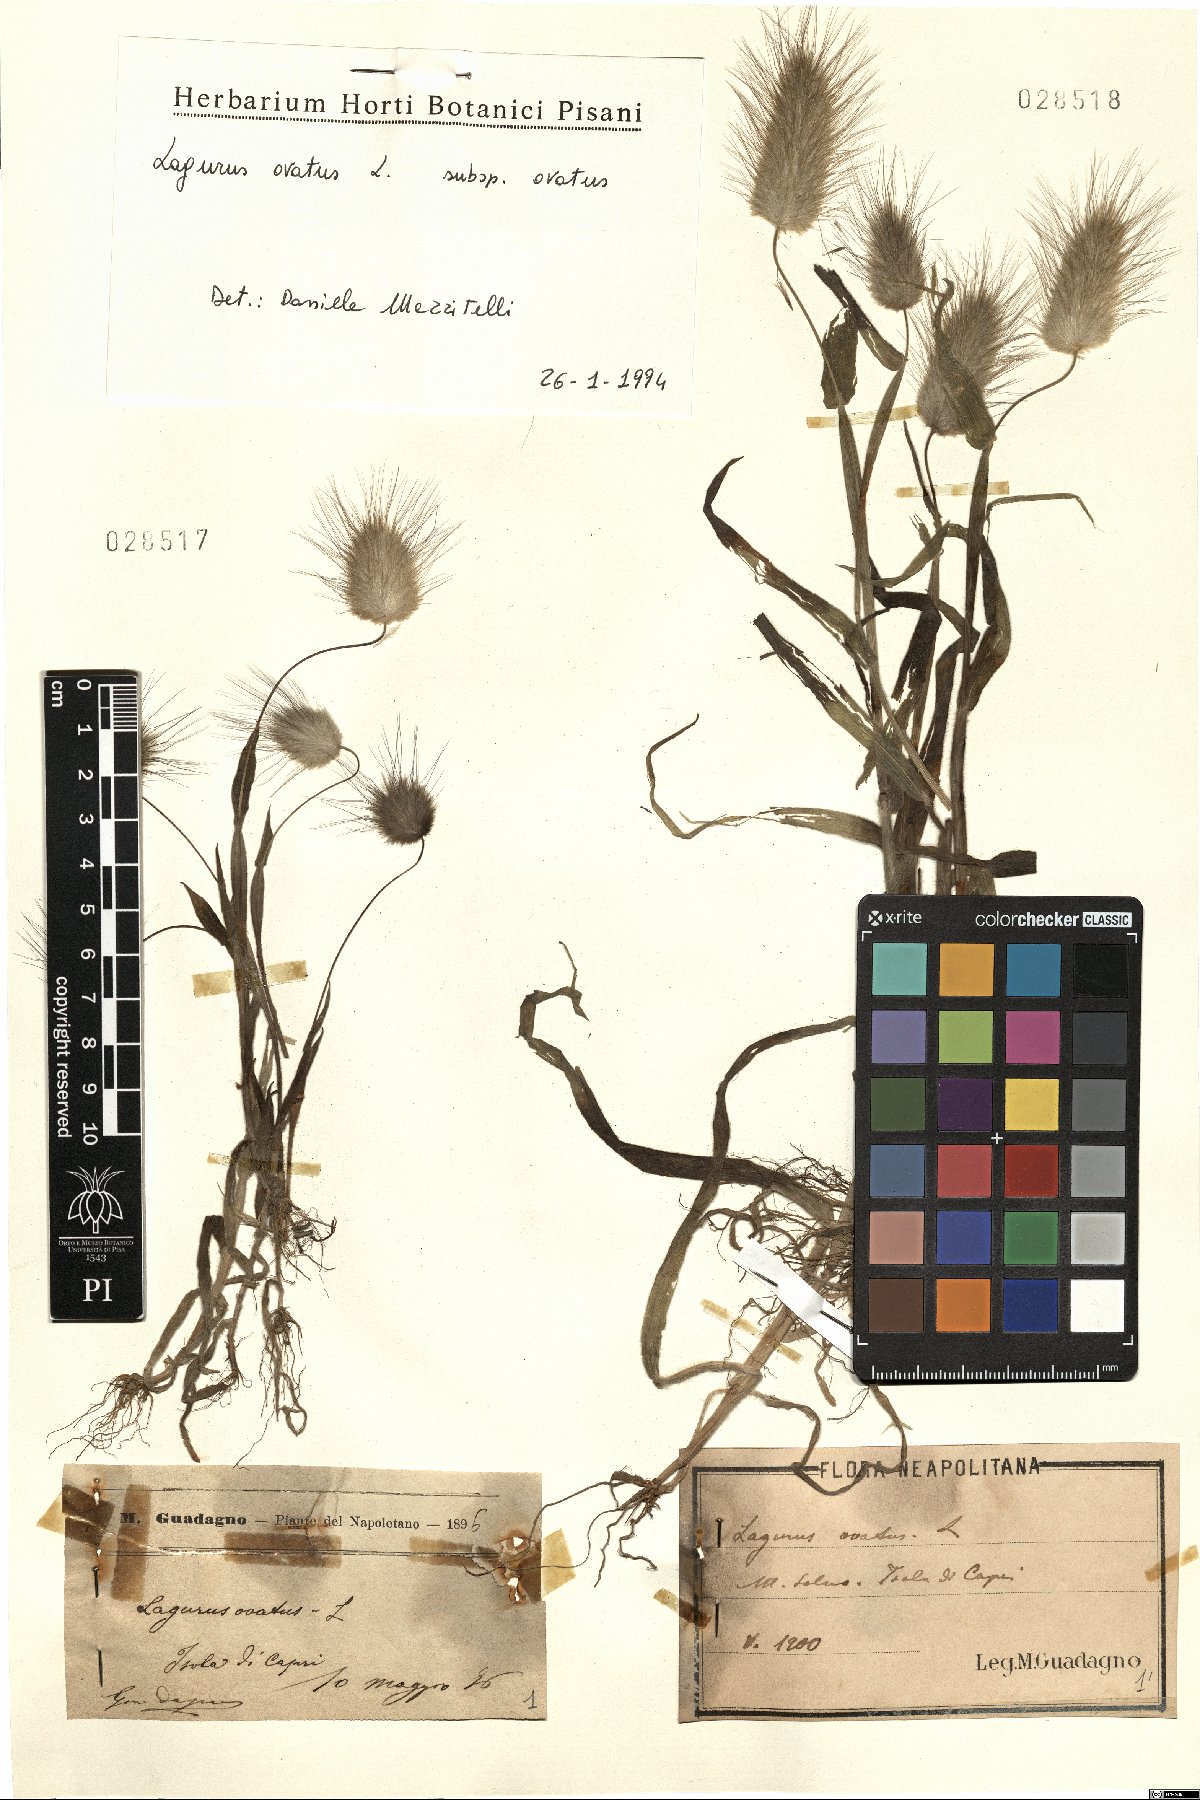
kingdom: Plantae
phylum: Tracheophyta
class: Liliopsida
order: Poales
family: Poaceae
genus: Lagurus
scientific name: Lagurus ovatus
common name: Hare's-tail
